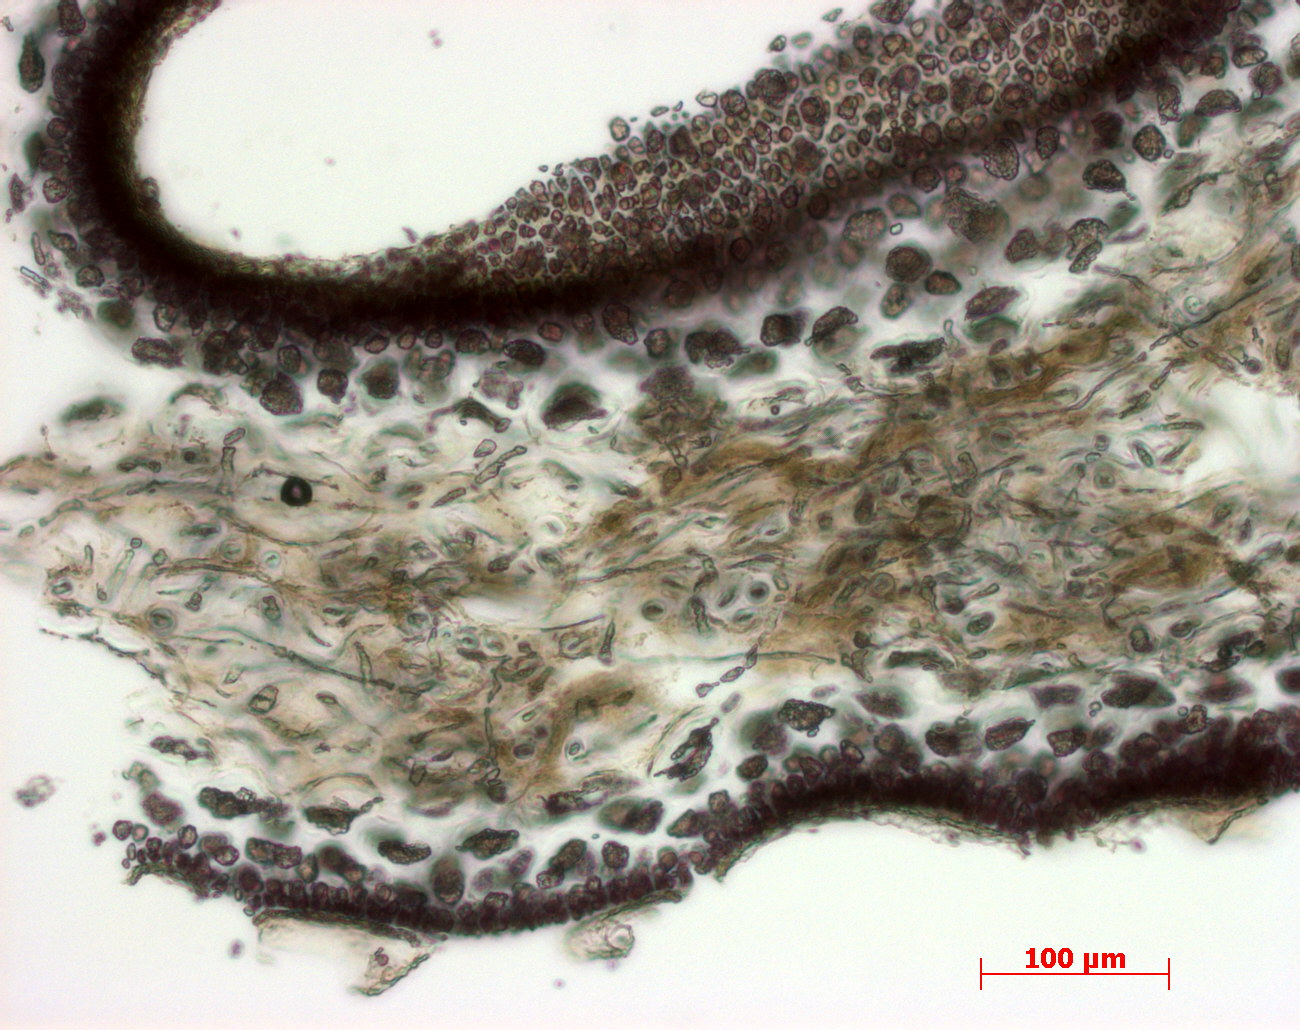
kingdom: Plantae
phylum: Rhodophyta
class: Florideophyceae
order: Gigartinales
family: Kallymeniaceae
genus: Psaromenia
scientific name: Psaromenia berggrenii
